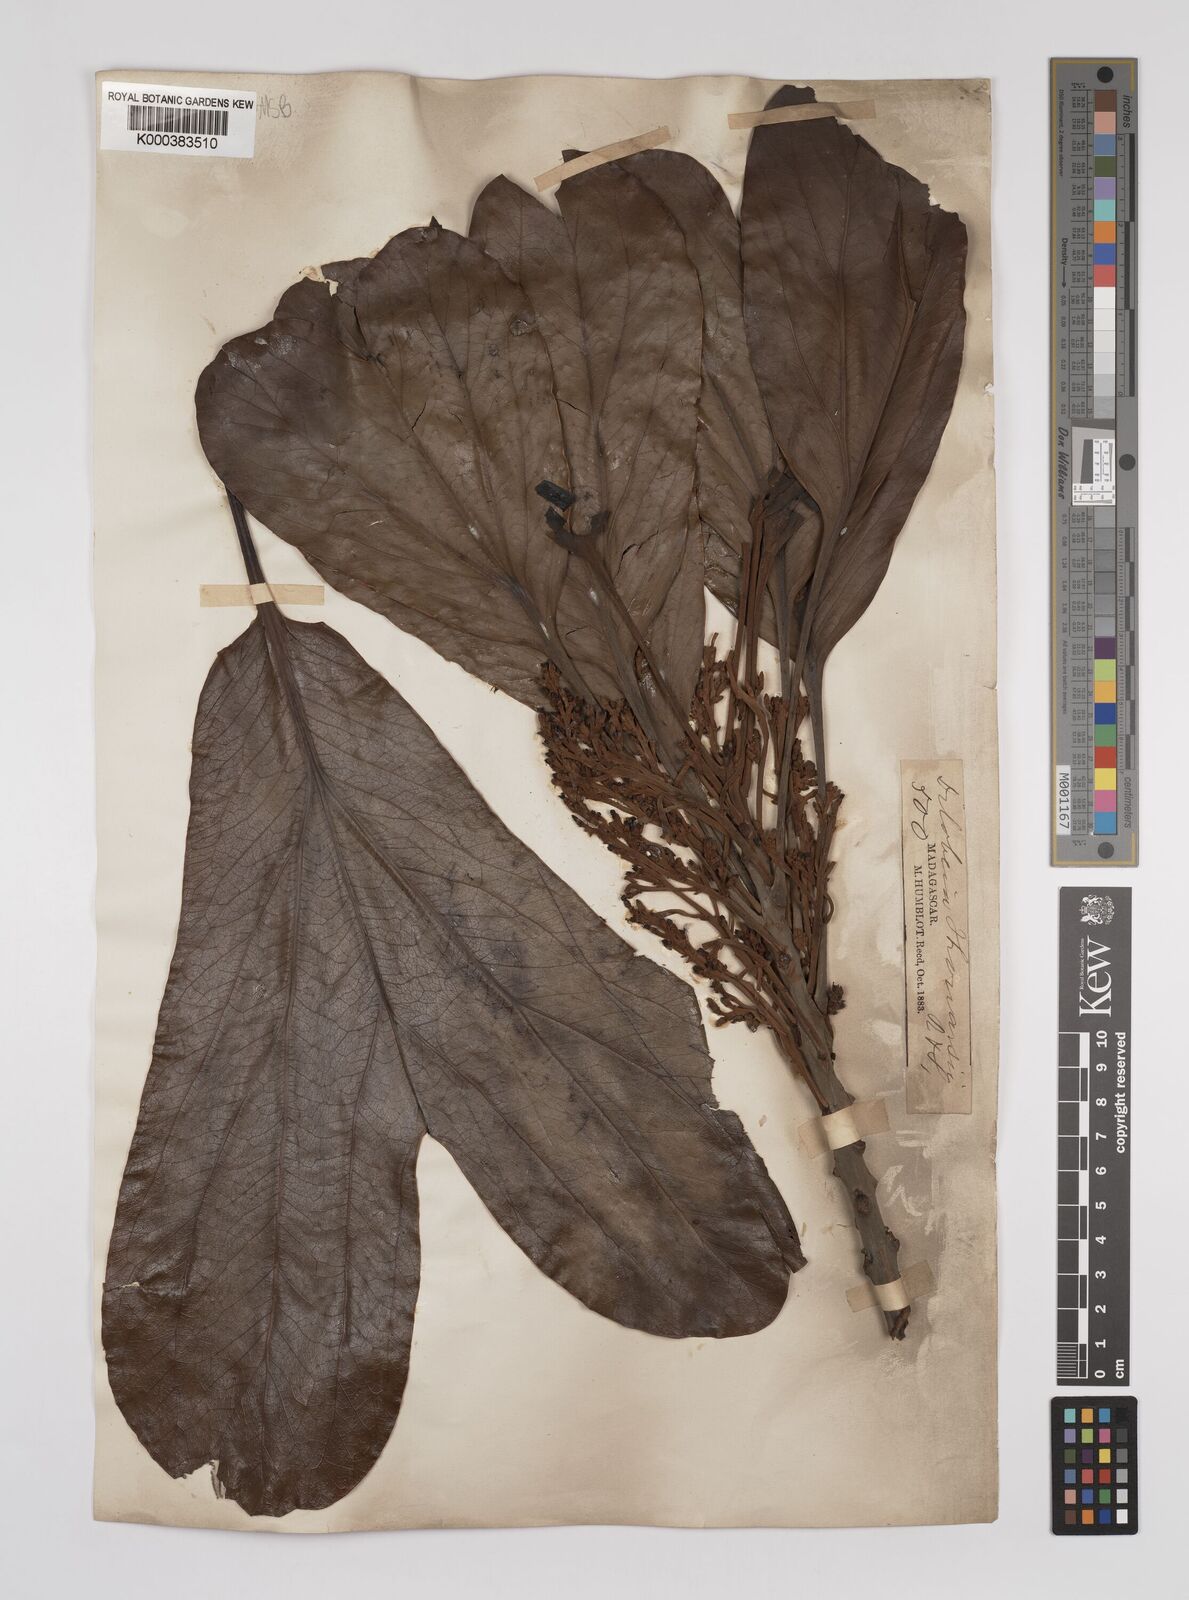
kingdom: Plantae
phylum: Tracheophyta
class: Magnoliopsida
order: Proteales
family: Proteaceae
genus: Dilobeia
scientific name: Dilobeia thouarsii
